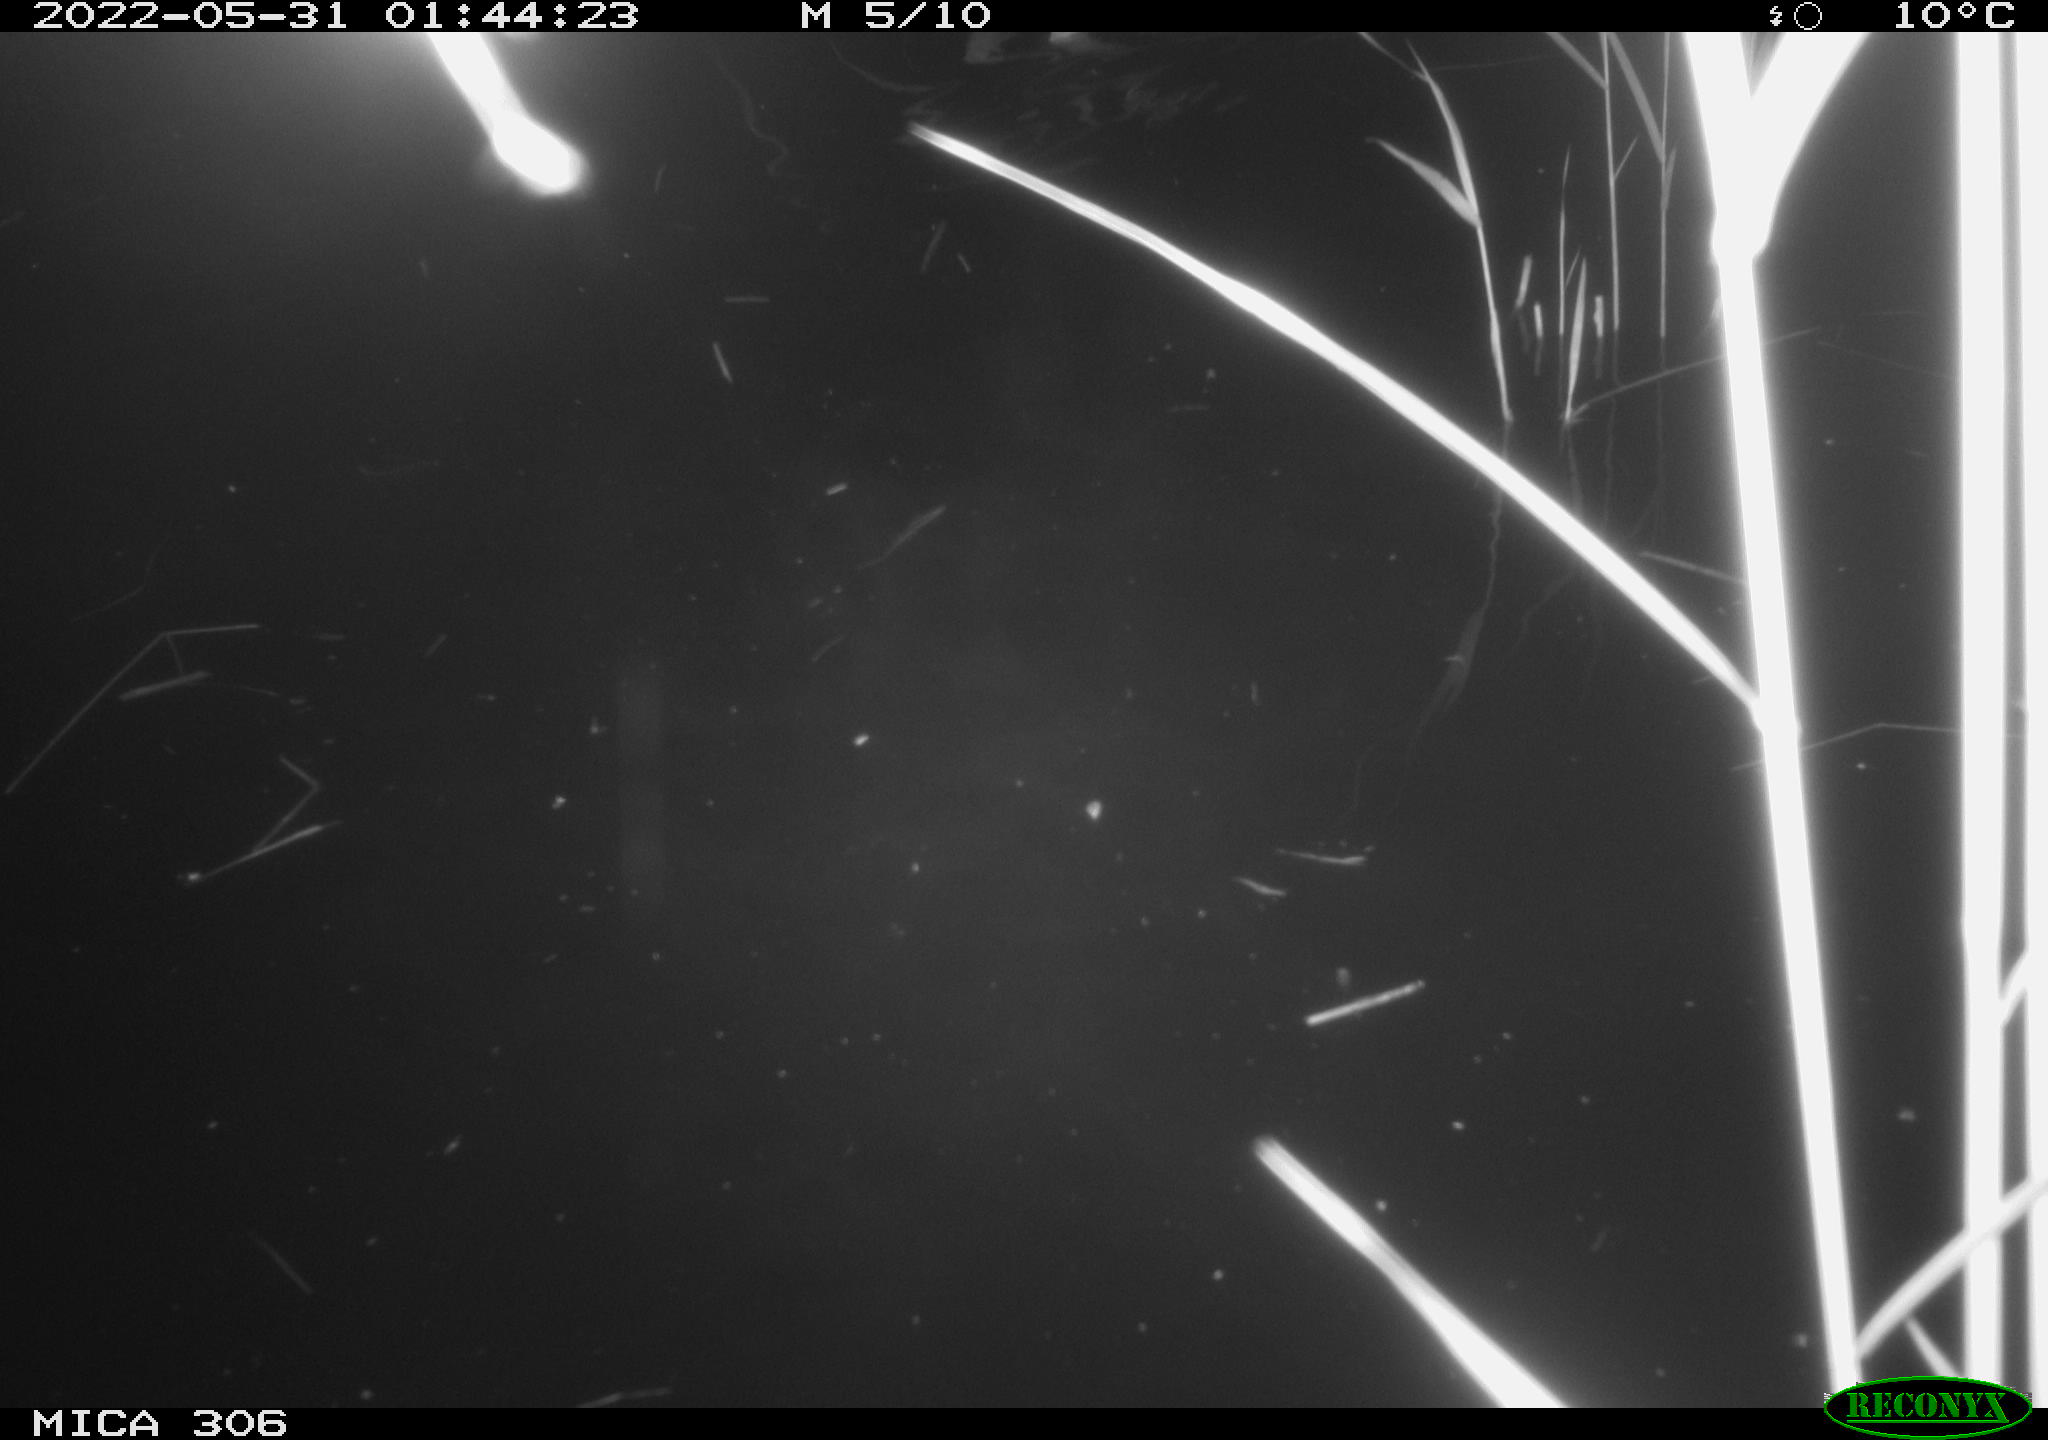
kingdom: Animalia
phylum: Chordata
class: Mammalia
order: Rodentia
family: Cricetidae
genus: Ondatra
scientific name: Ondatra zibethicus
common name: Muskrat
